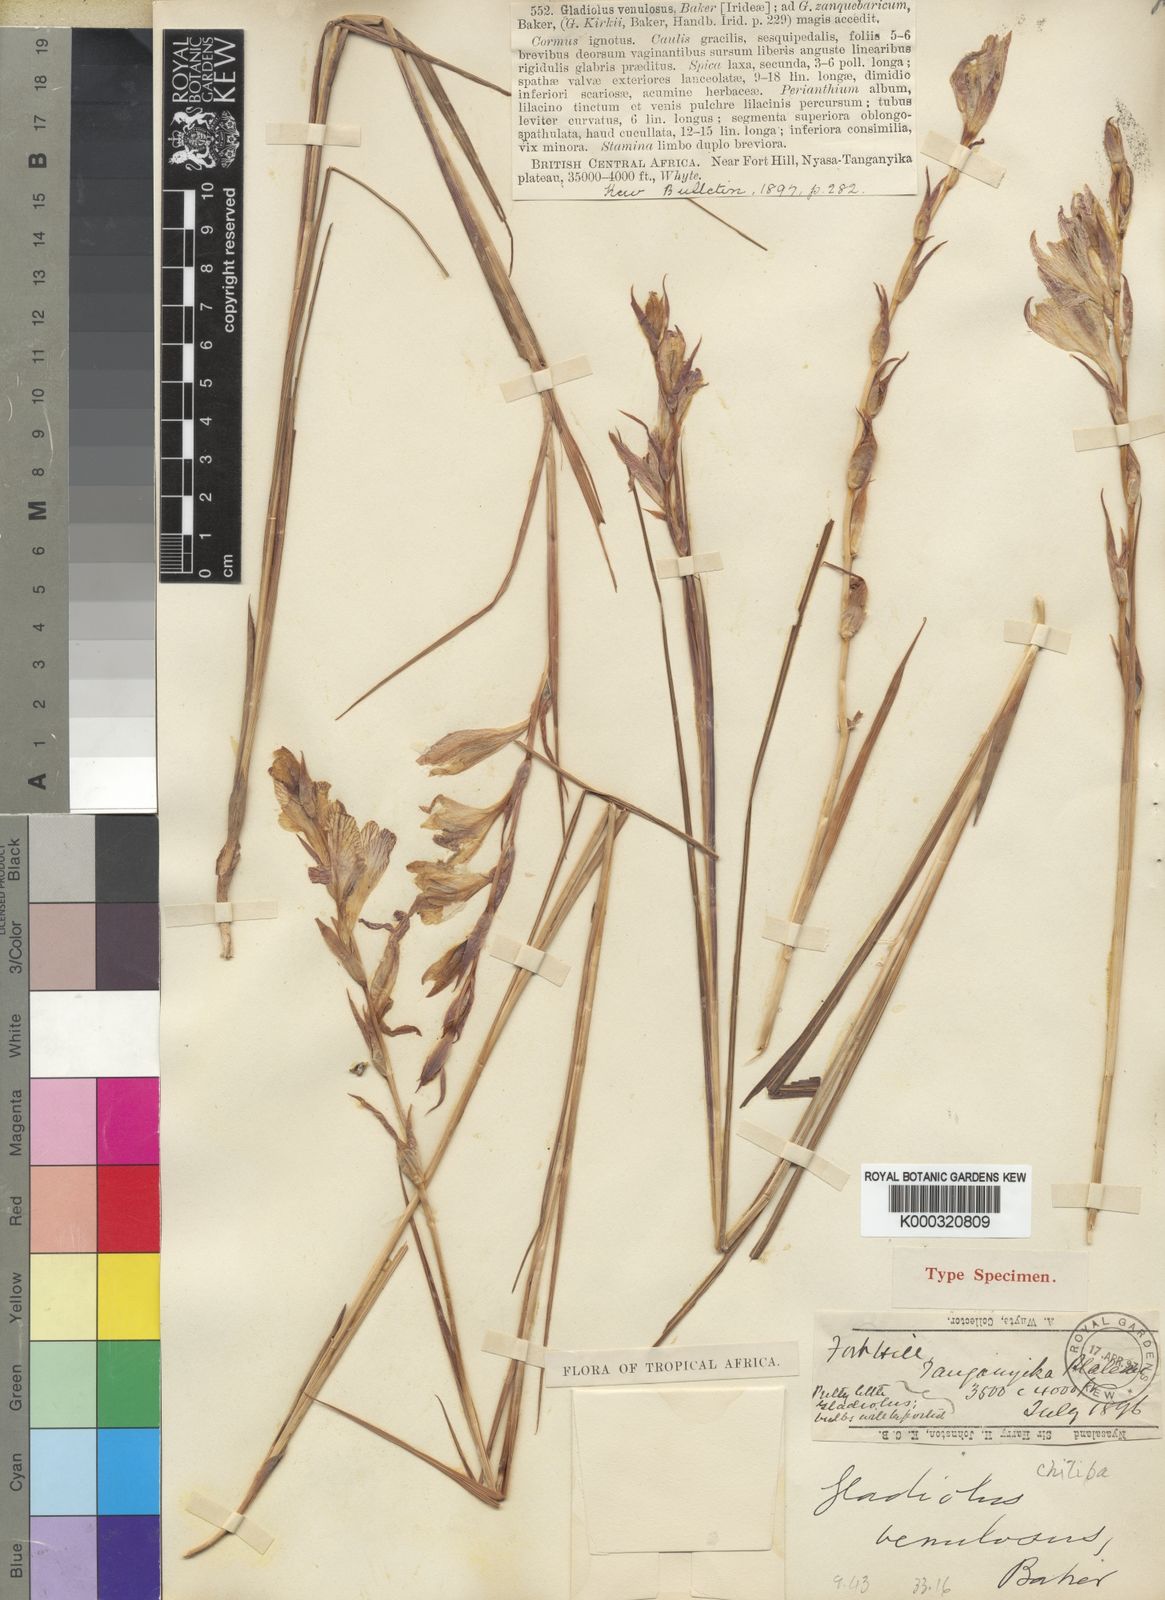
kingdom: Plantae
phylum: Tracheophyta
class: Liliopsida
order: Asparagales
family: Iridaceae
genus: Gladiolus
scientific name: Gladiolus erectiflorus
